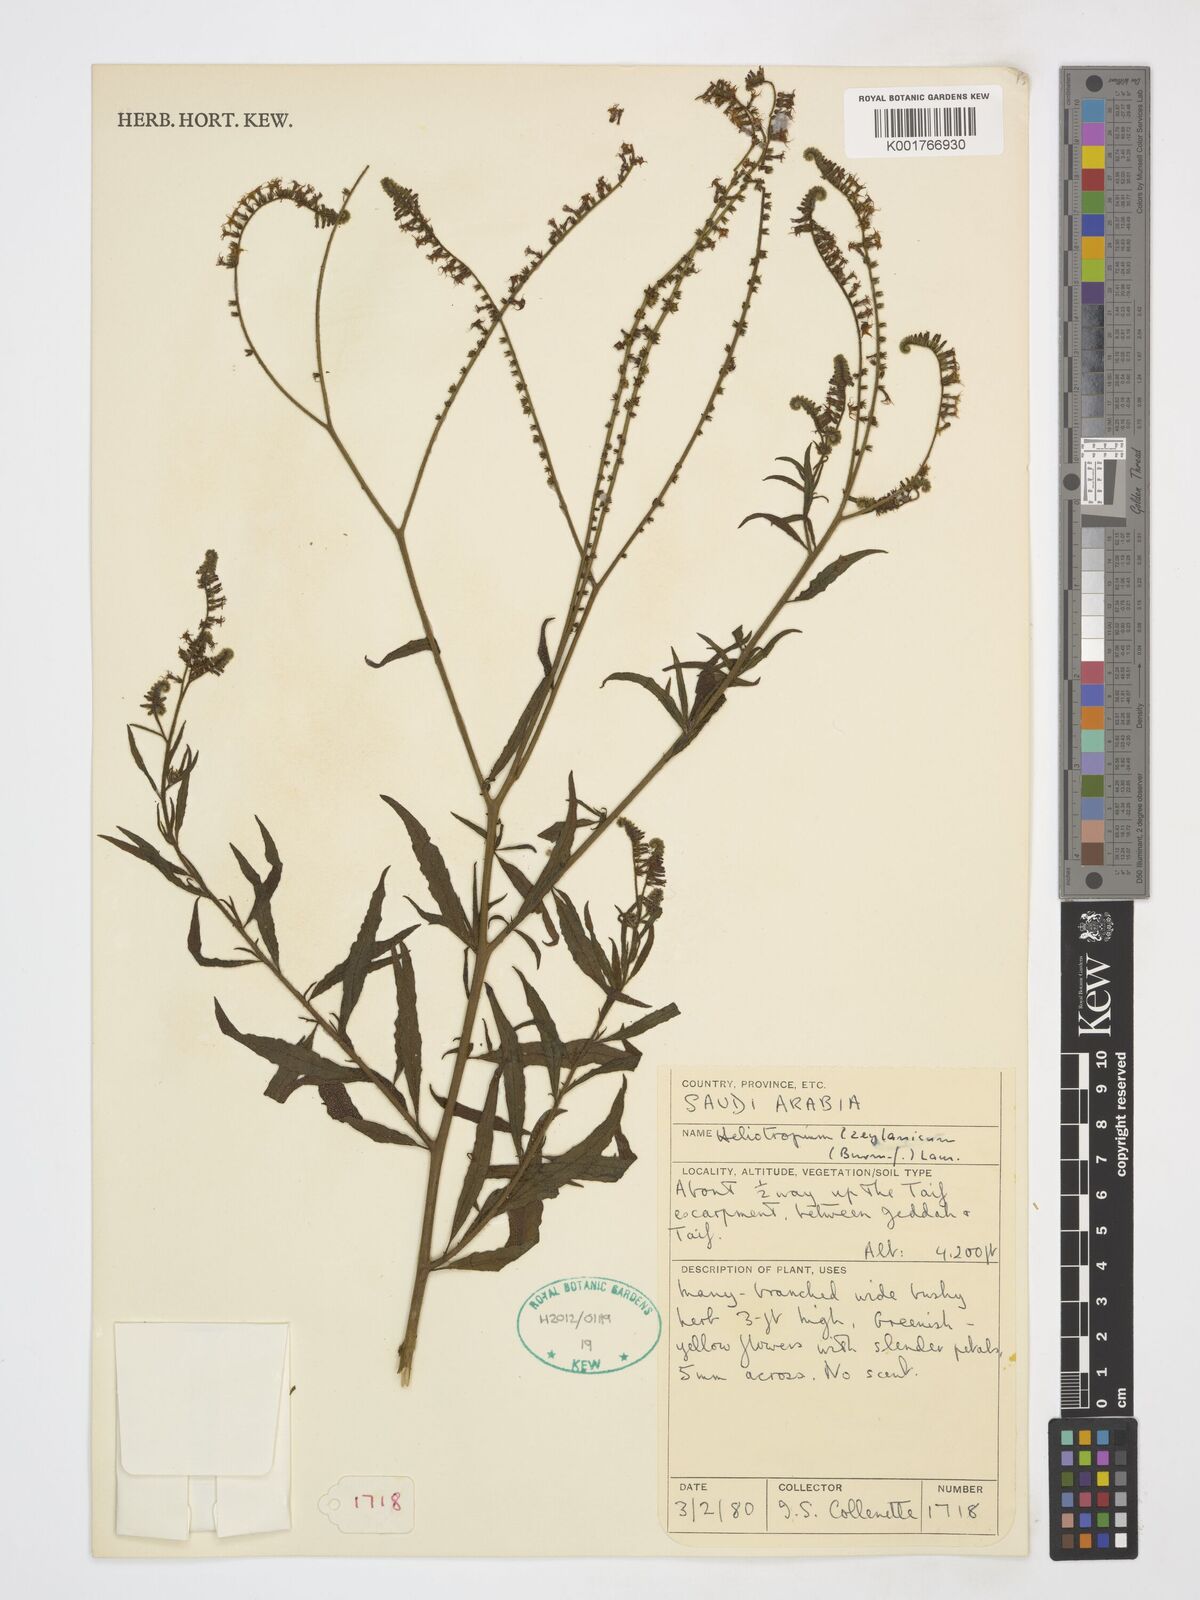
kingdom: Plantae
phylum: Tracheophyta
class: Magnoliopsida
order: Boraginales
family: Heliotropiaceae
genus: Heliotropium
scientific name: Heliotropium zeylanicum
